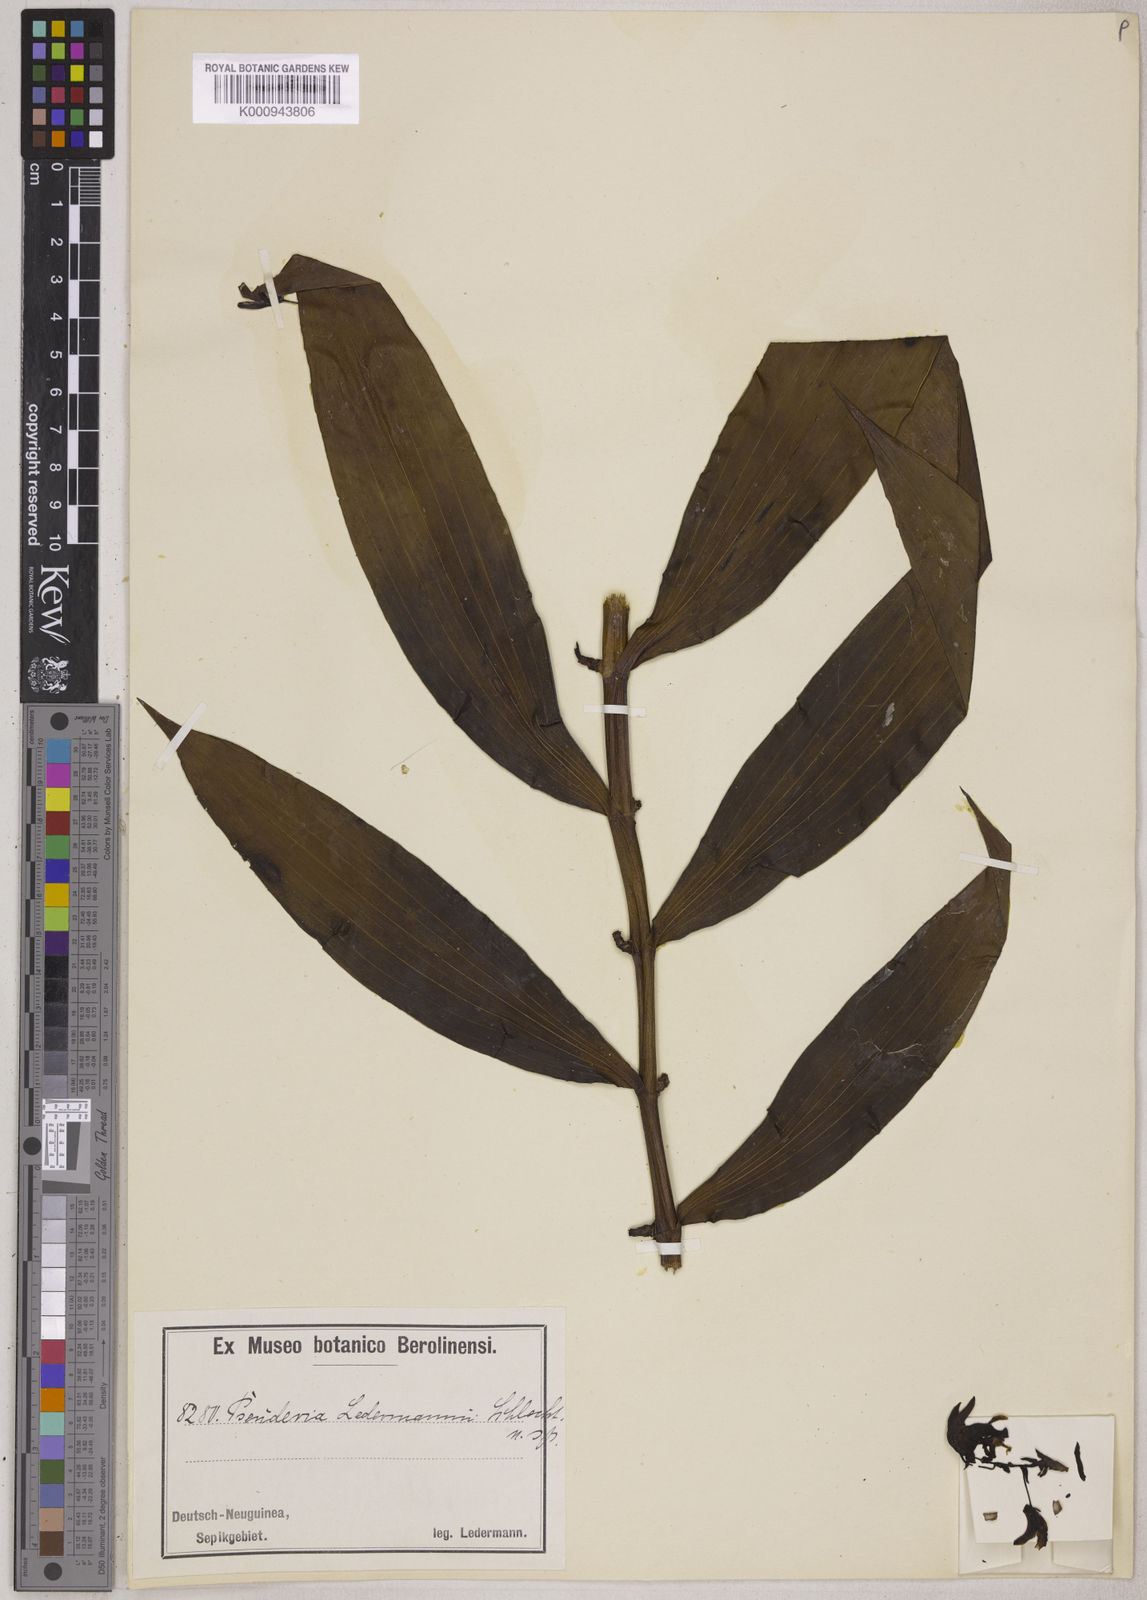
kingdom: Plantae
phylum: Tracheophyta
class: Liliopsida
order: Asparagales
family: Orchidaceae
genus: Pseuderia
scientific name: Pseuderia ledermannii
